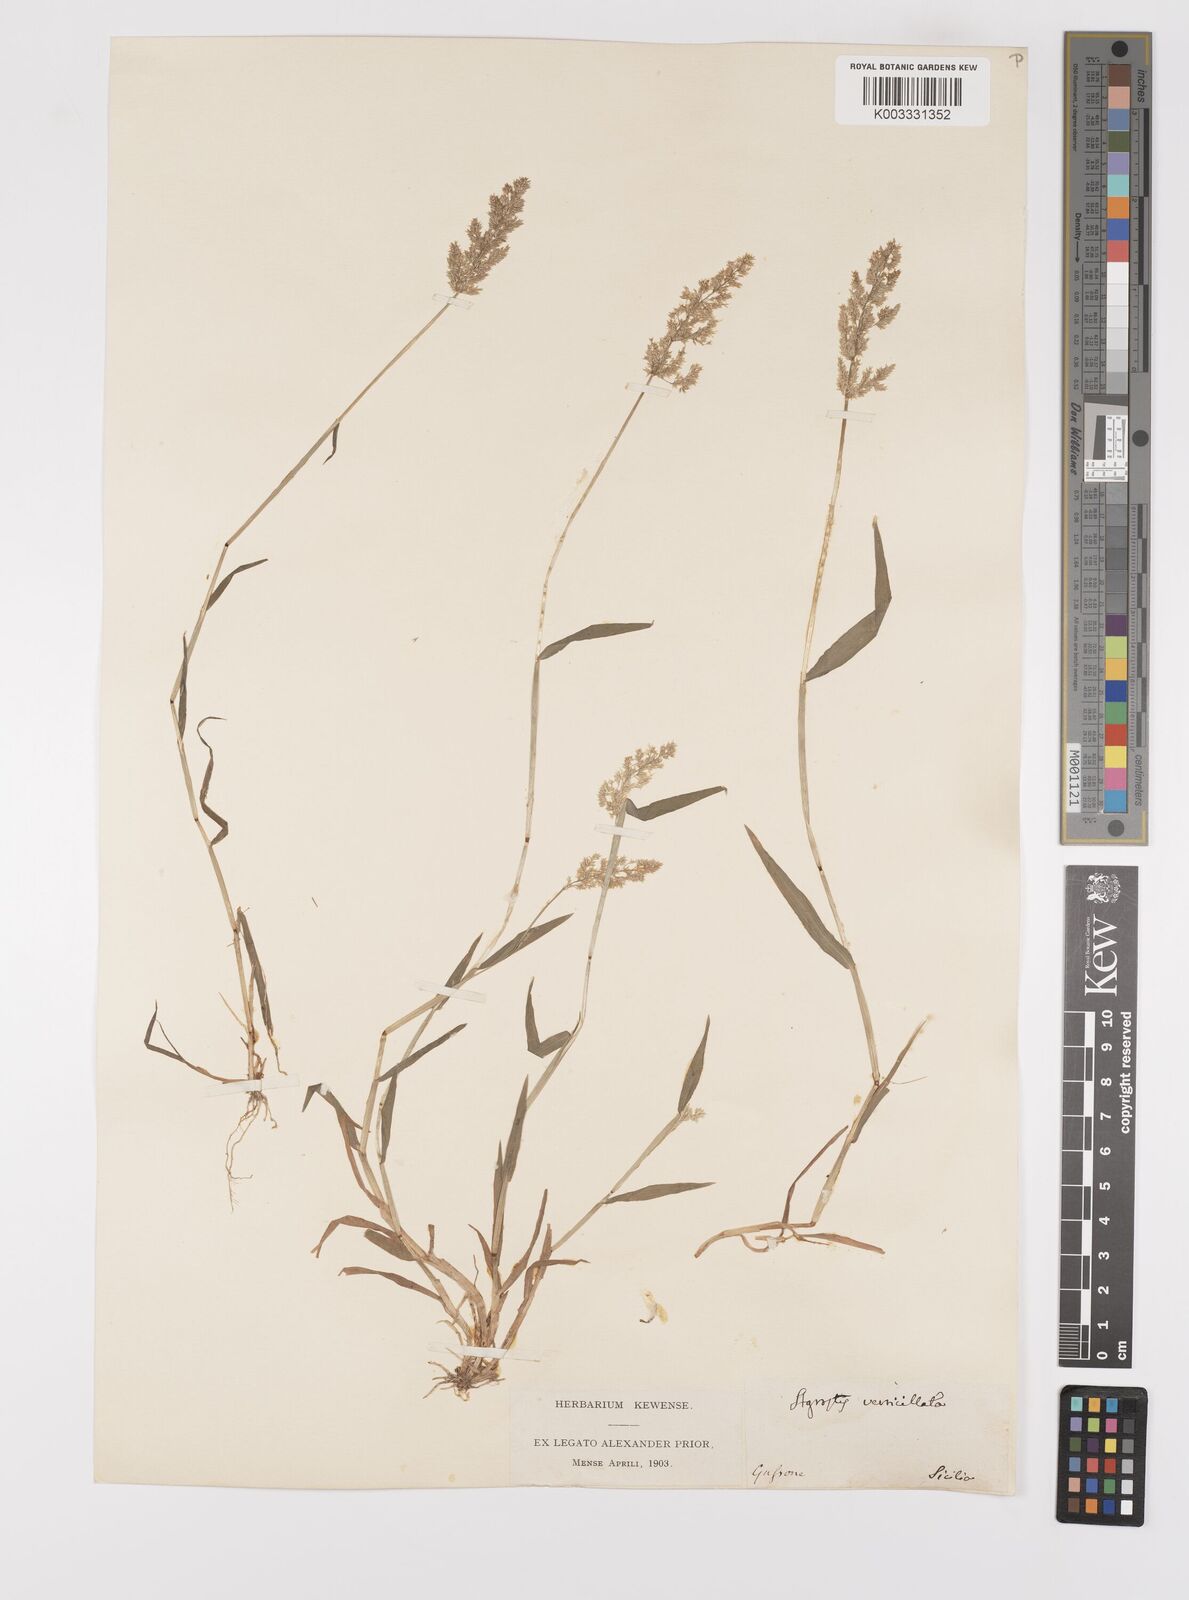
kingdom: Plantae
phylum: Tracheophyta
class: Liliopsida
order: Poales
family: Poaceae
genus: Polypogon
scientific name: Polypogon viridis
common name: Water bent
